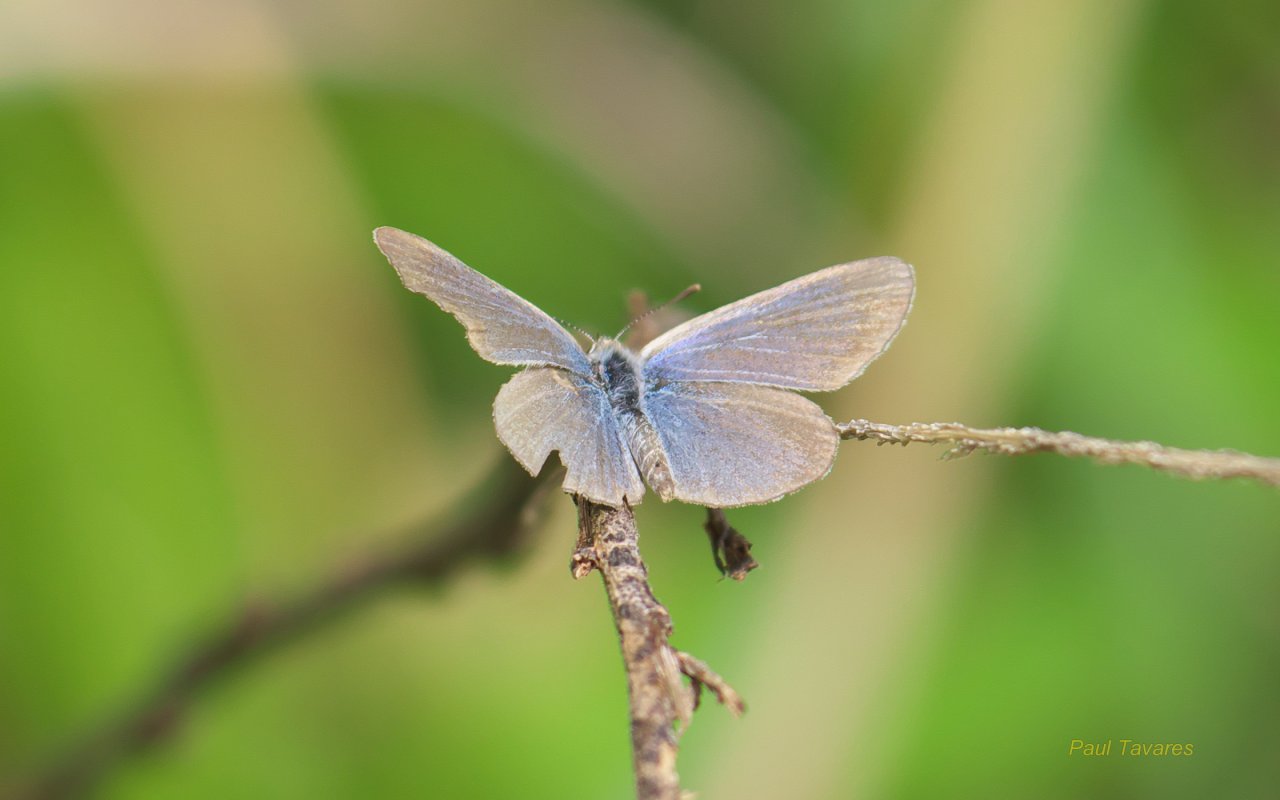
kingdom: Animalia
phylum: Arthropoda
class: Insecta
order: Lepidoptera
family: Lycaenidae
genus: Zizina
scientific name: Zizina otis
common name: Lesser Grass Blue
